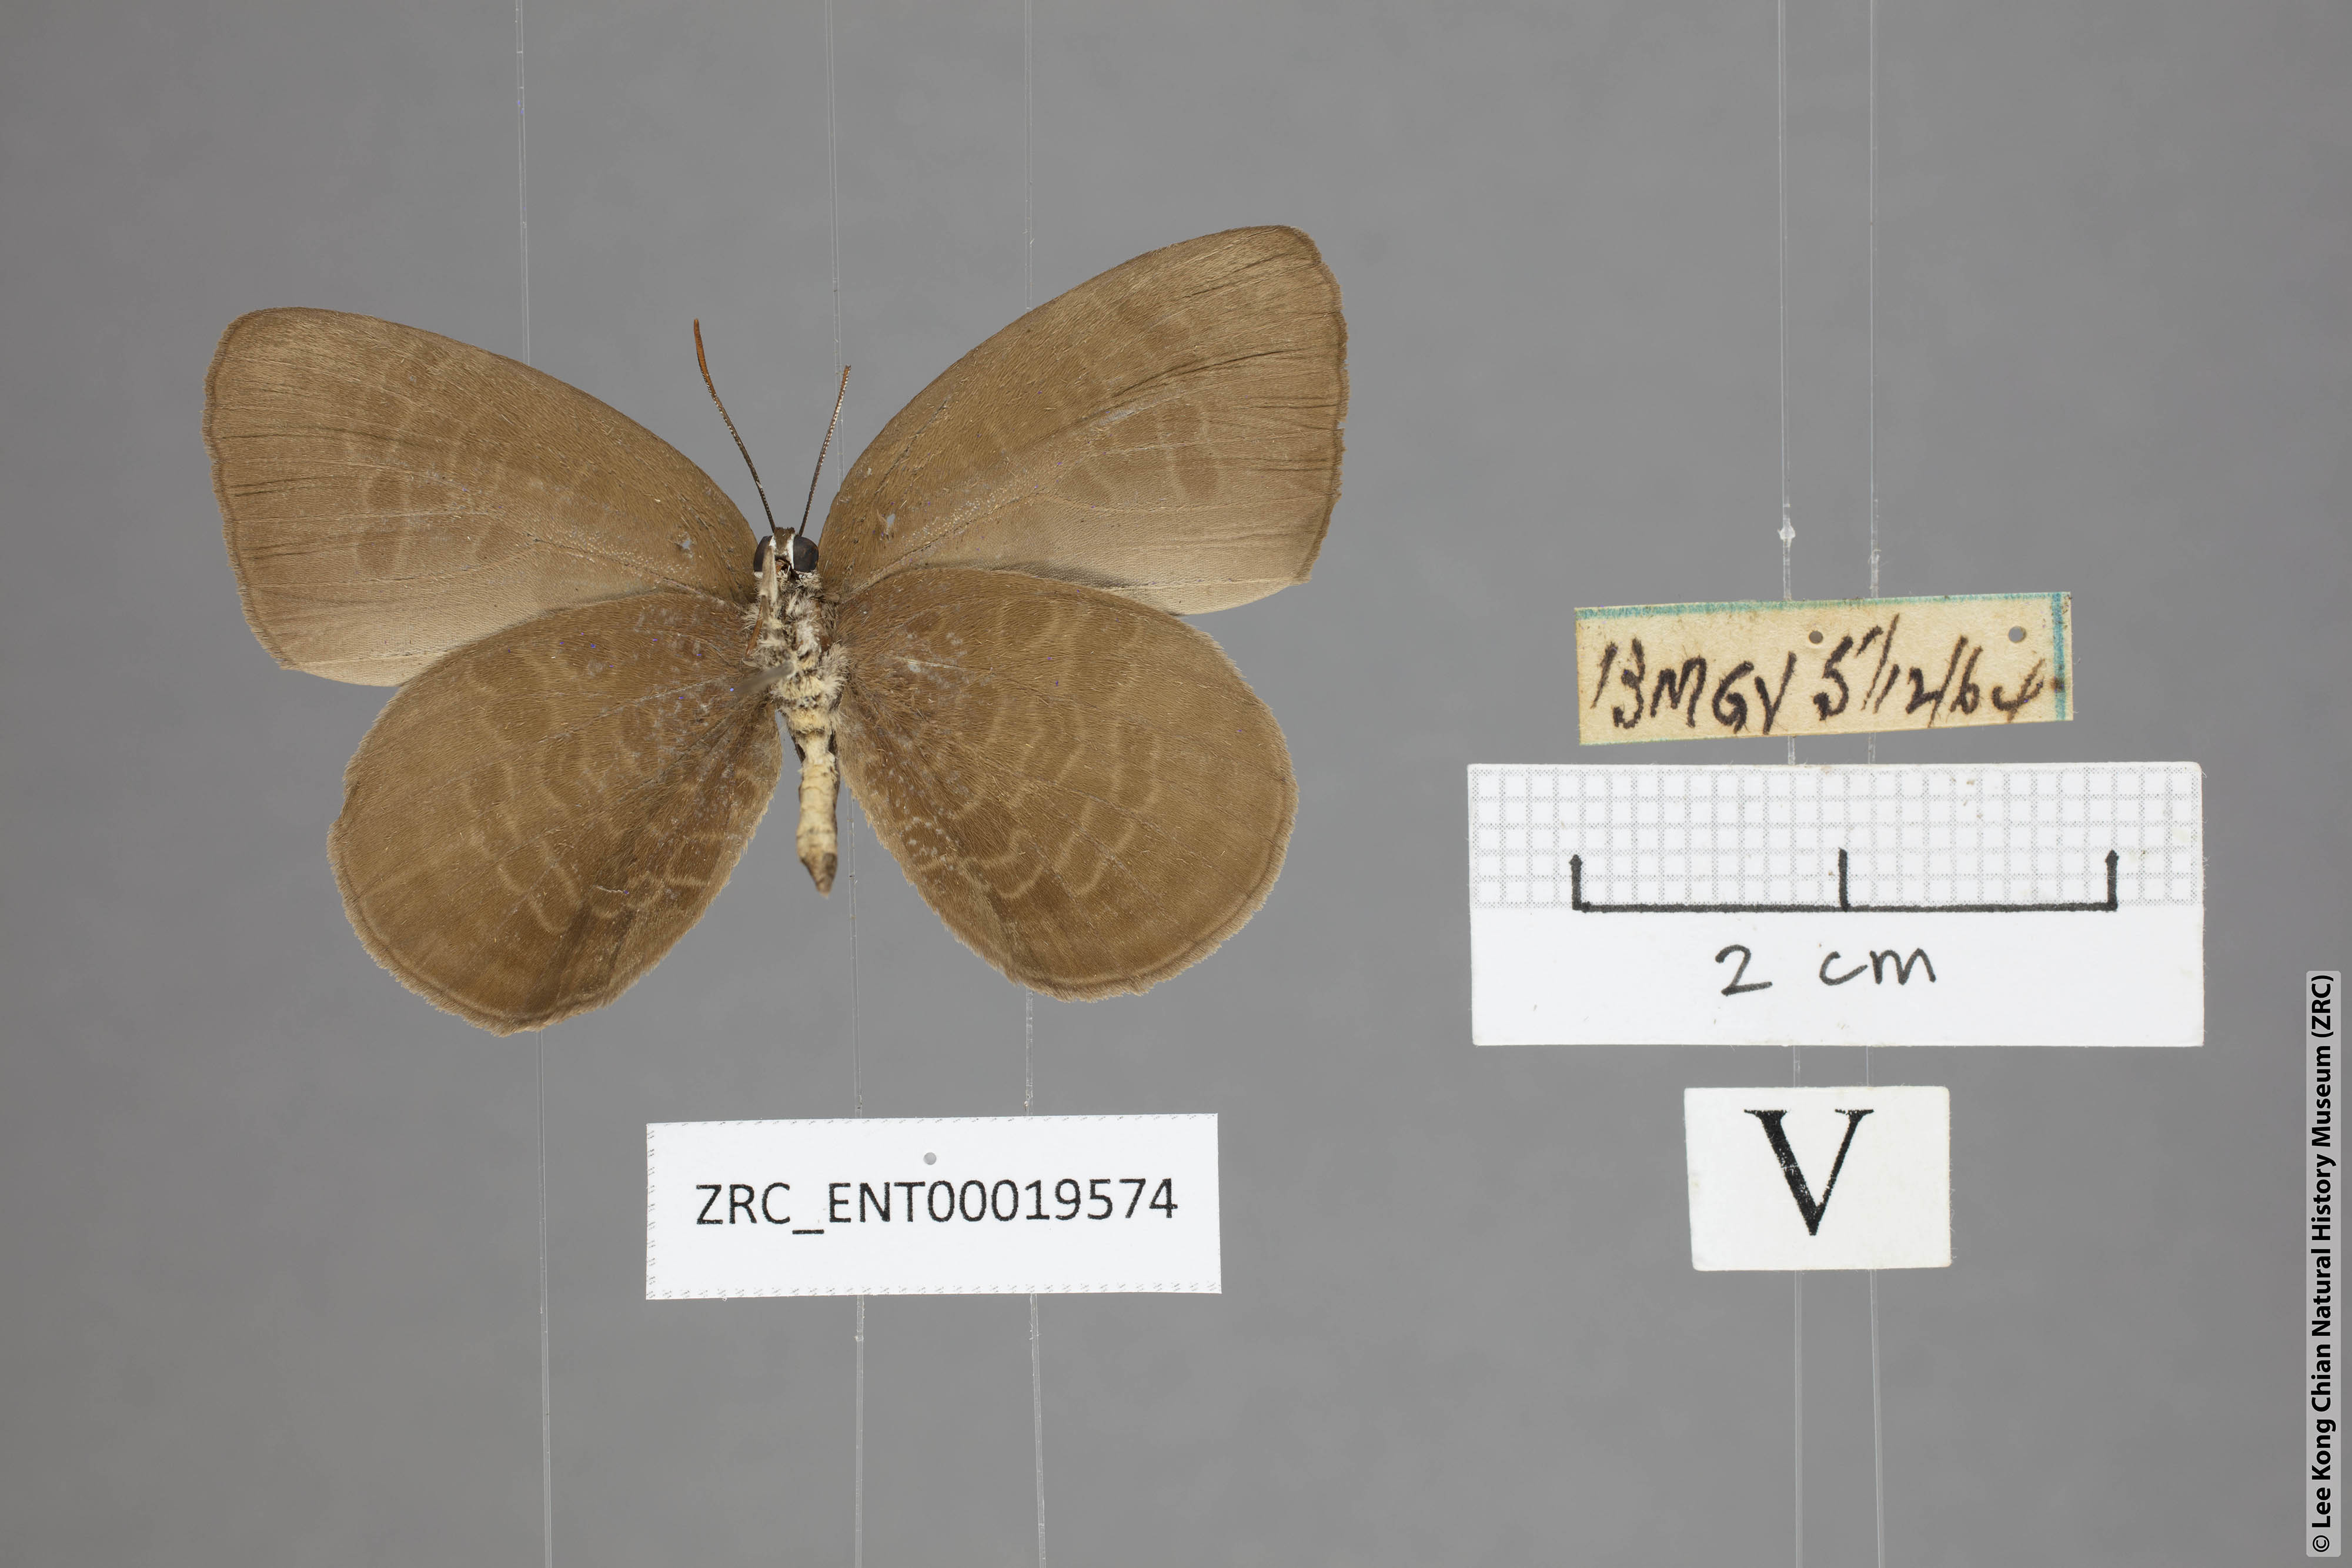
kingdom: Animalia
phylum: Arthropoda
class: Insecta
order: Lepidoptera
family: Lycaenidae
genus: Arhopala
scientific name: Arhopala inornata
